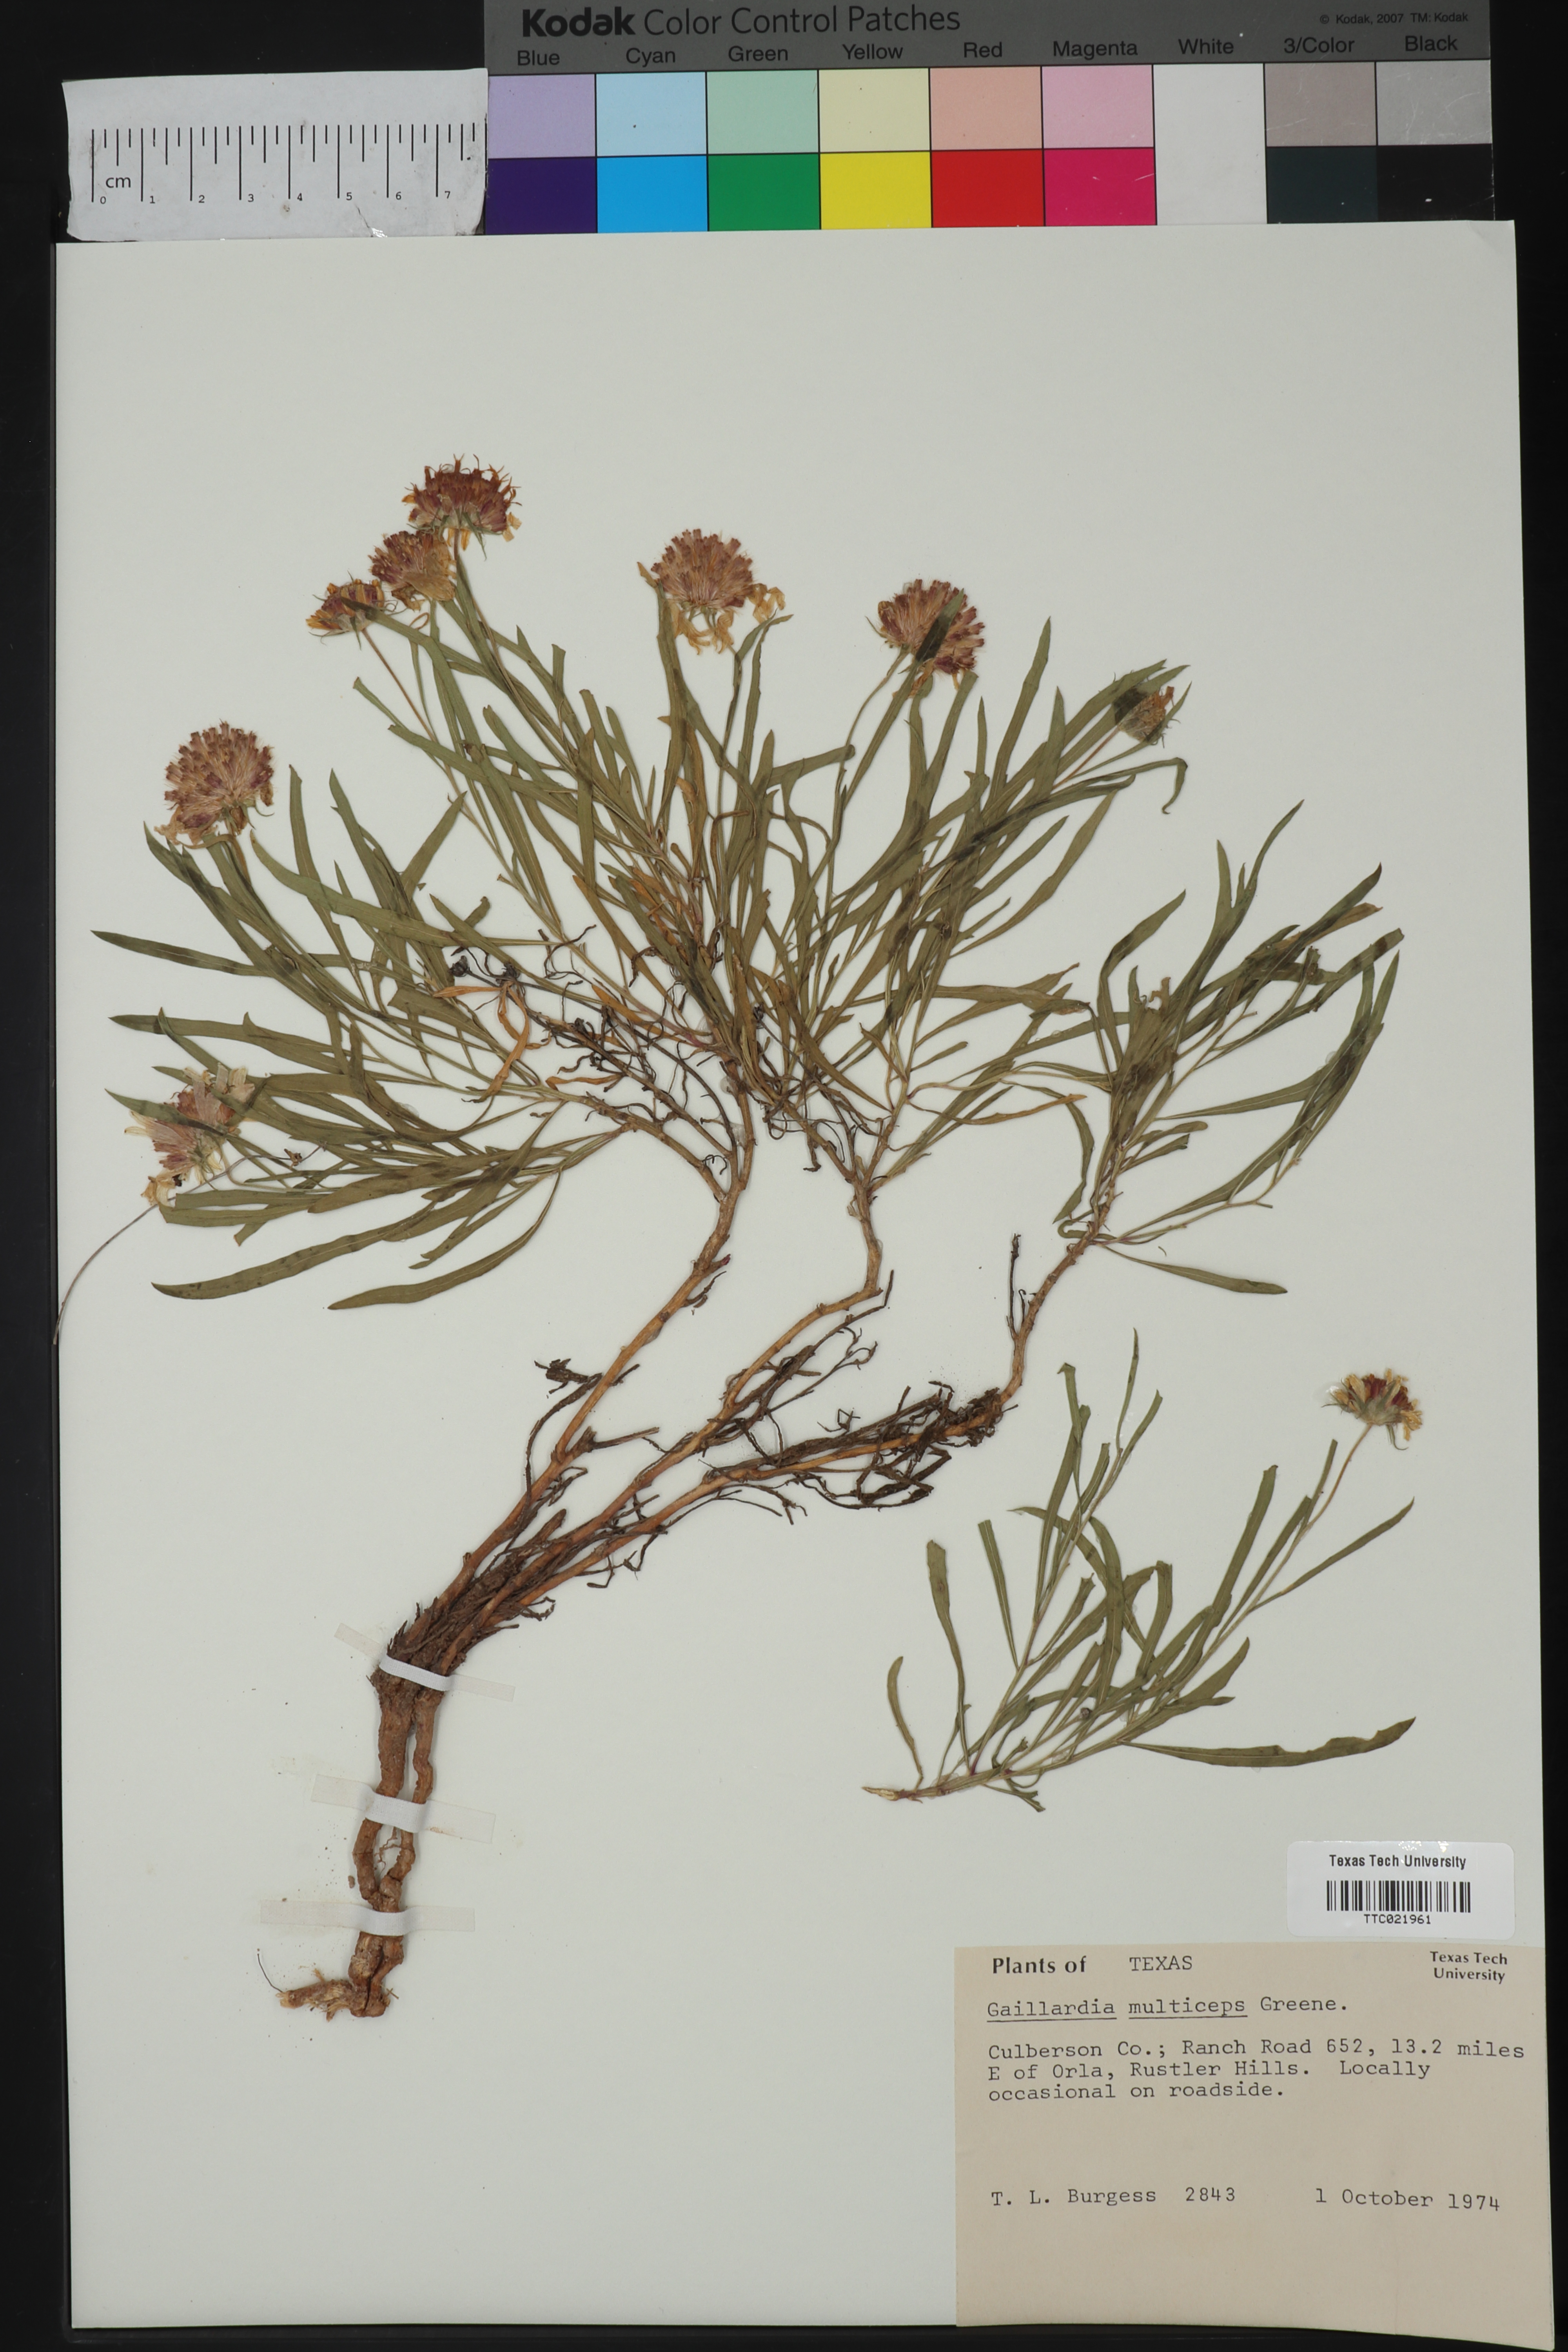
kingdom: Plantae
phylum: Tracheophyta
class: Magnoliopsida
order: Asterales
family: Asteraceae
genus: Gaillardia
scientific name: Gaillardia multiceps
